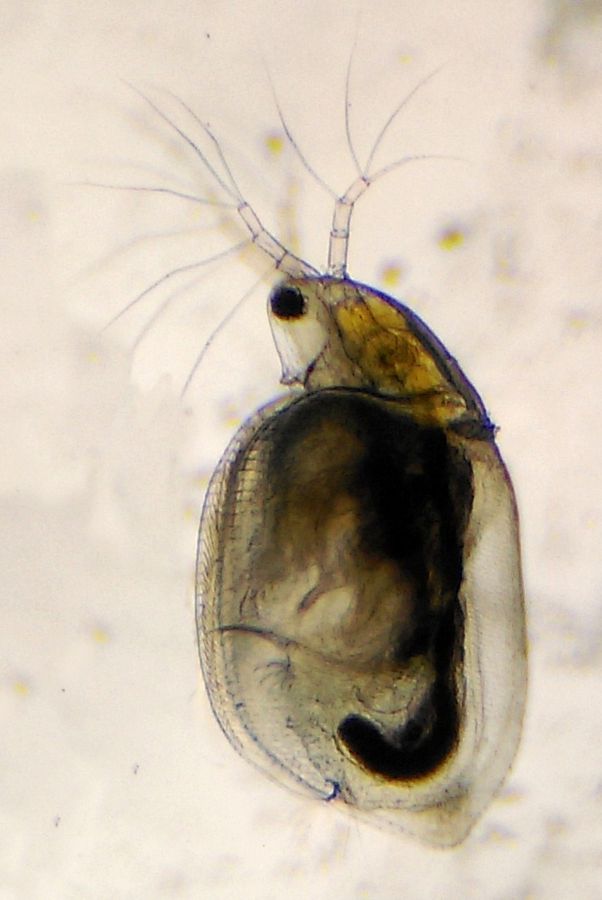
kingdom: Animalia
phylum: Arthropoda
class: Branchiopoda
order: Diplostraca
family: Daphniidae
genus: Simocephalus
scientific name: Simocephalus vetulus
